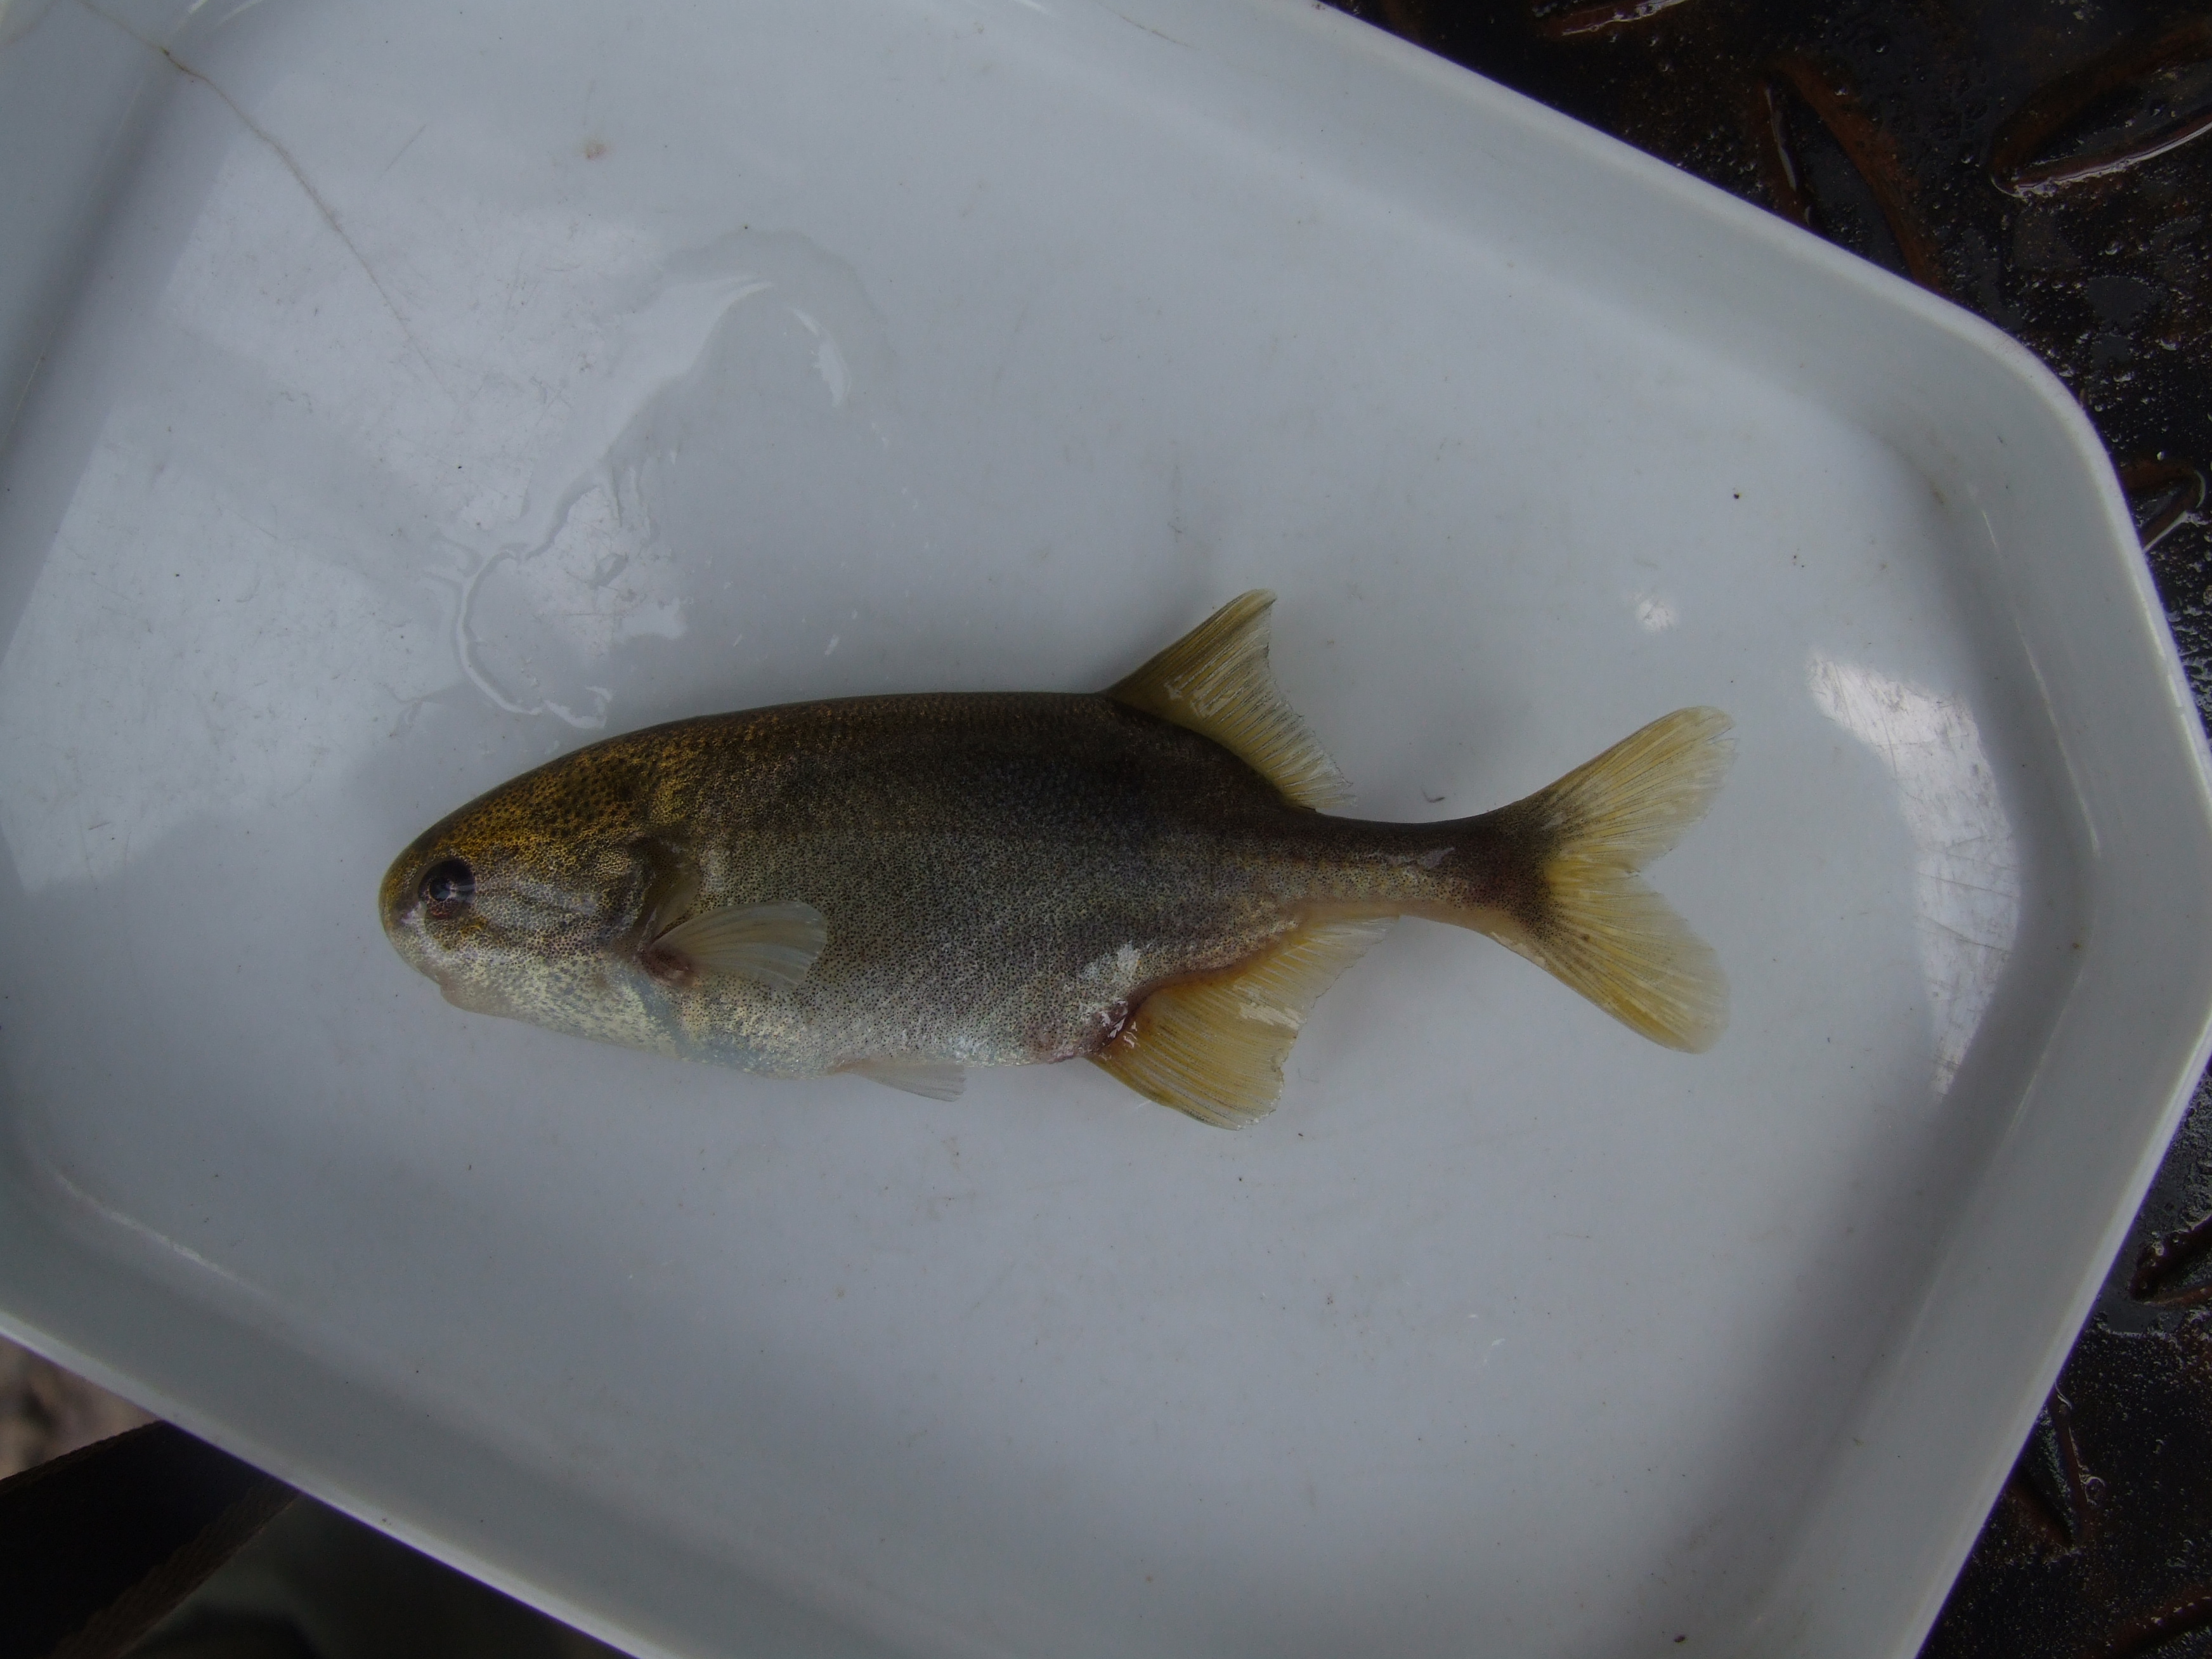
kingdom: Animalia
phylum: Chordata
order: Osteoglossiformes
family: Mormyridae
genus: Petrocephalus
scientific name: Petrocephalus catostoma
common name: Churchill
